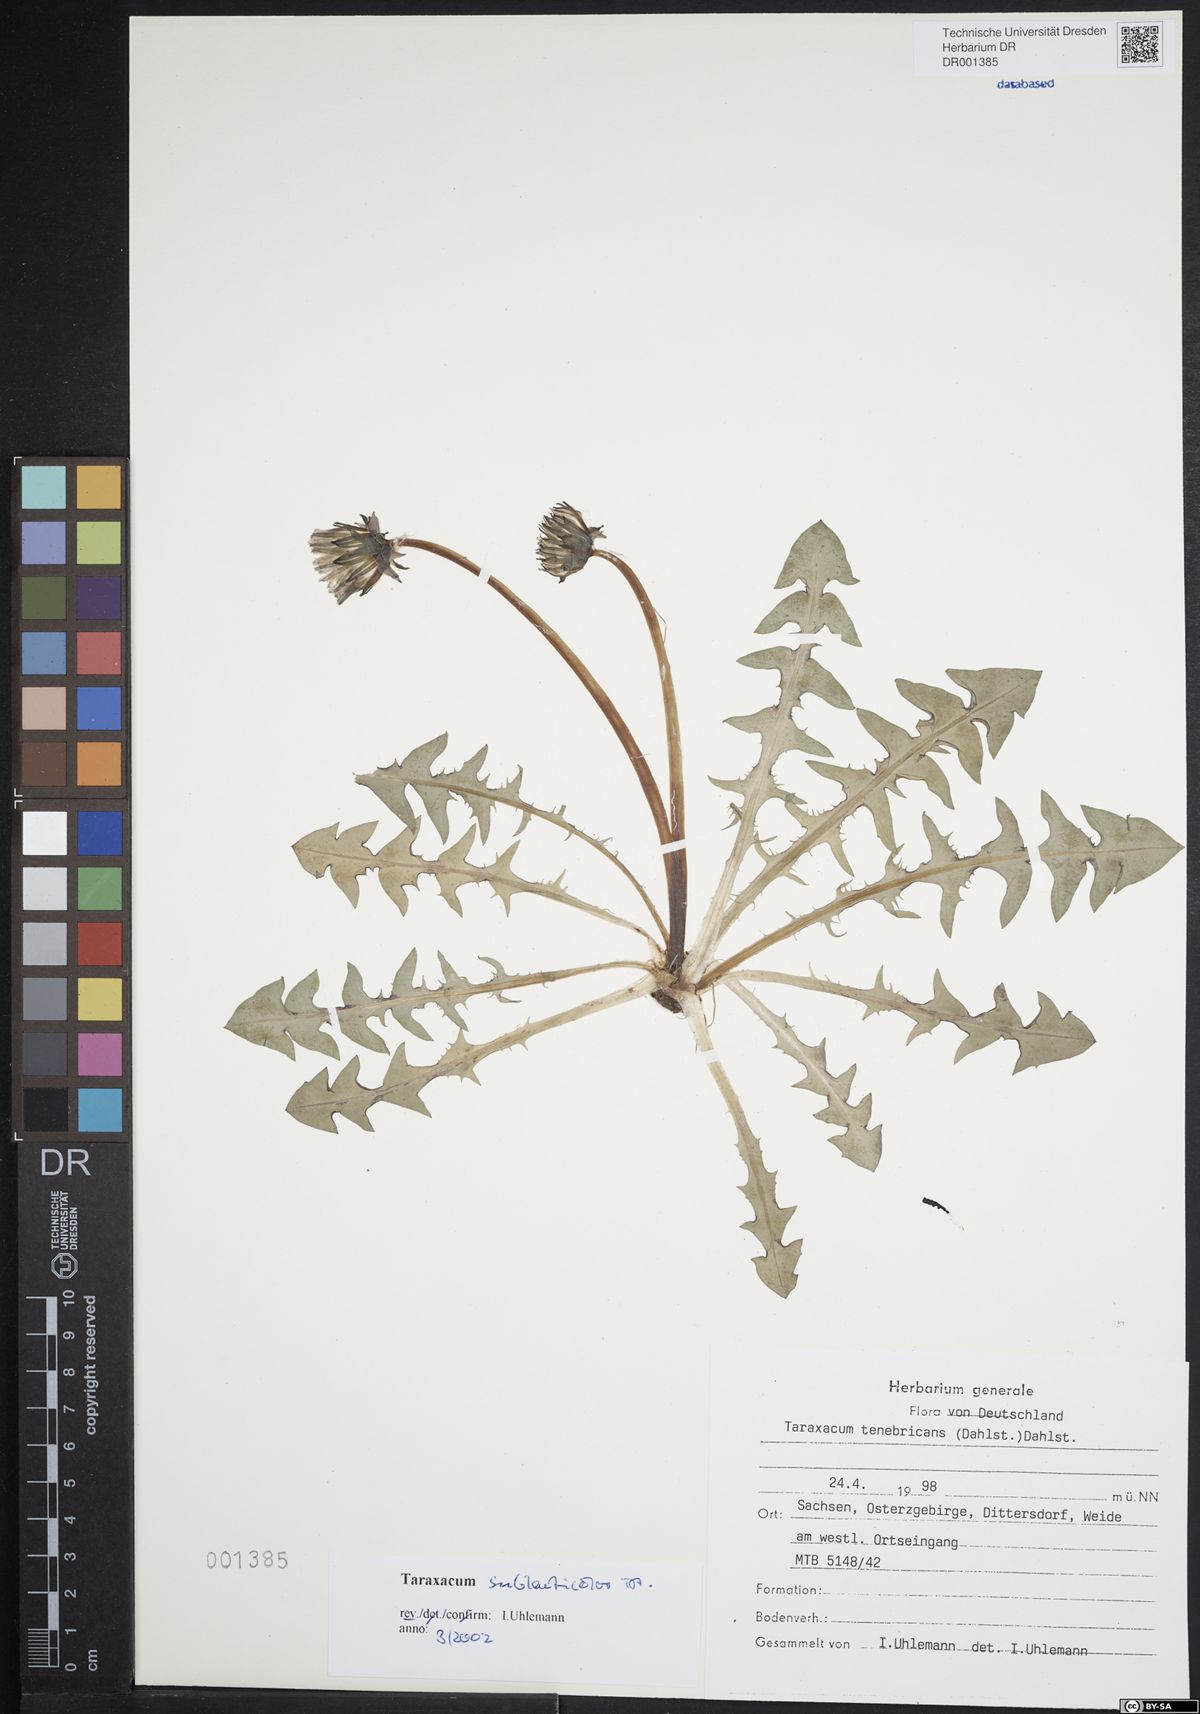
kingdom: Plantae
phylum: Tracheophyta
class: Magnoliopsida
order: Asterales
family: Asteraceae
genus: Taraxacum
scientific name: Taraxacum sublaeticolor
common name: Small-headed dandelion
